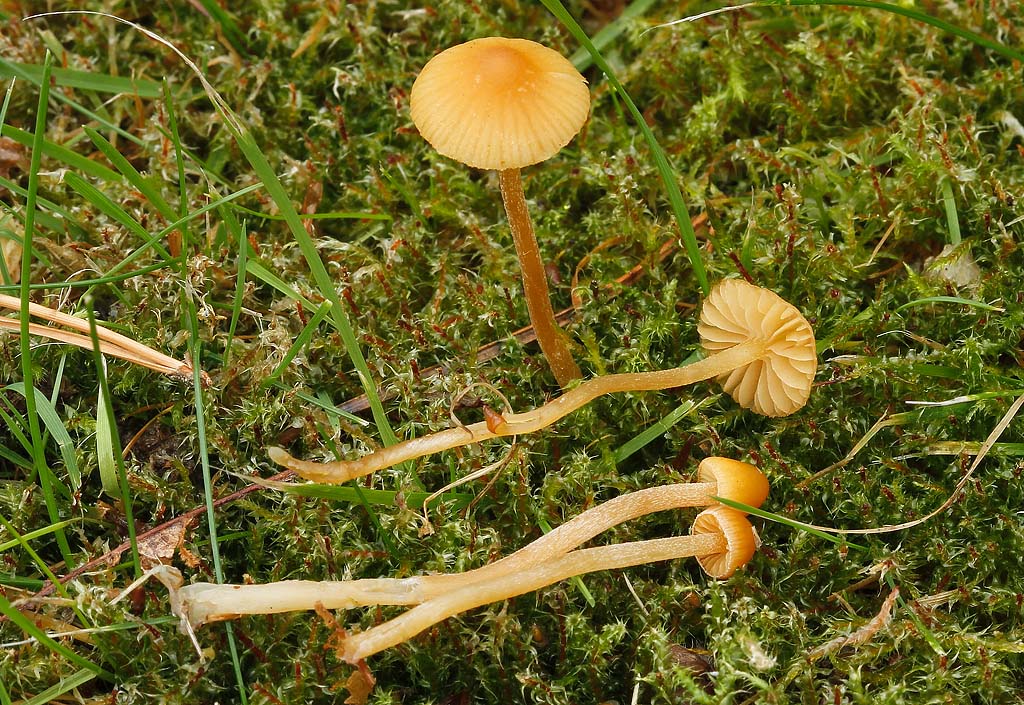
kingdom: Fungi
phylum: Basidiomycota
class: Agaricomycetes
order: Agaricales
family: Hymenogastraceae
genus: Galerina
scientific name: Galerina clavata
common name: kær-hjelmhat
